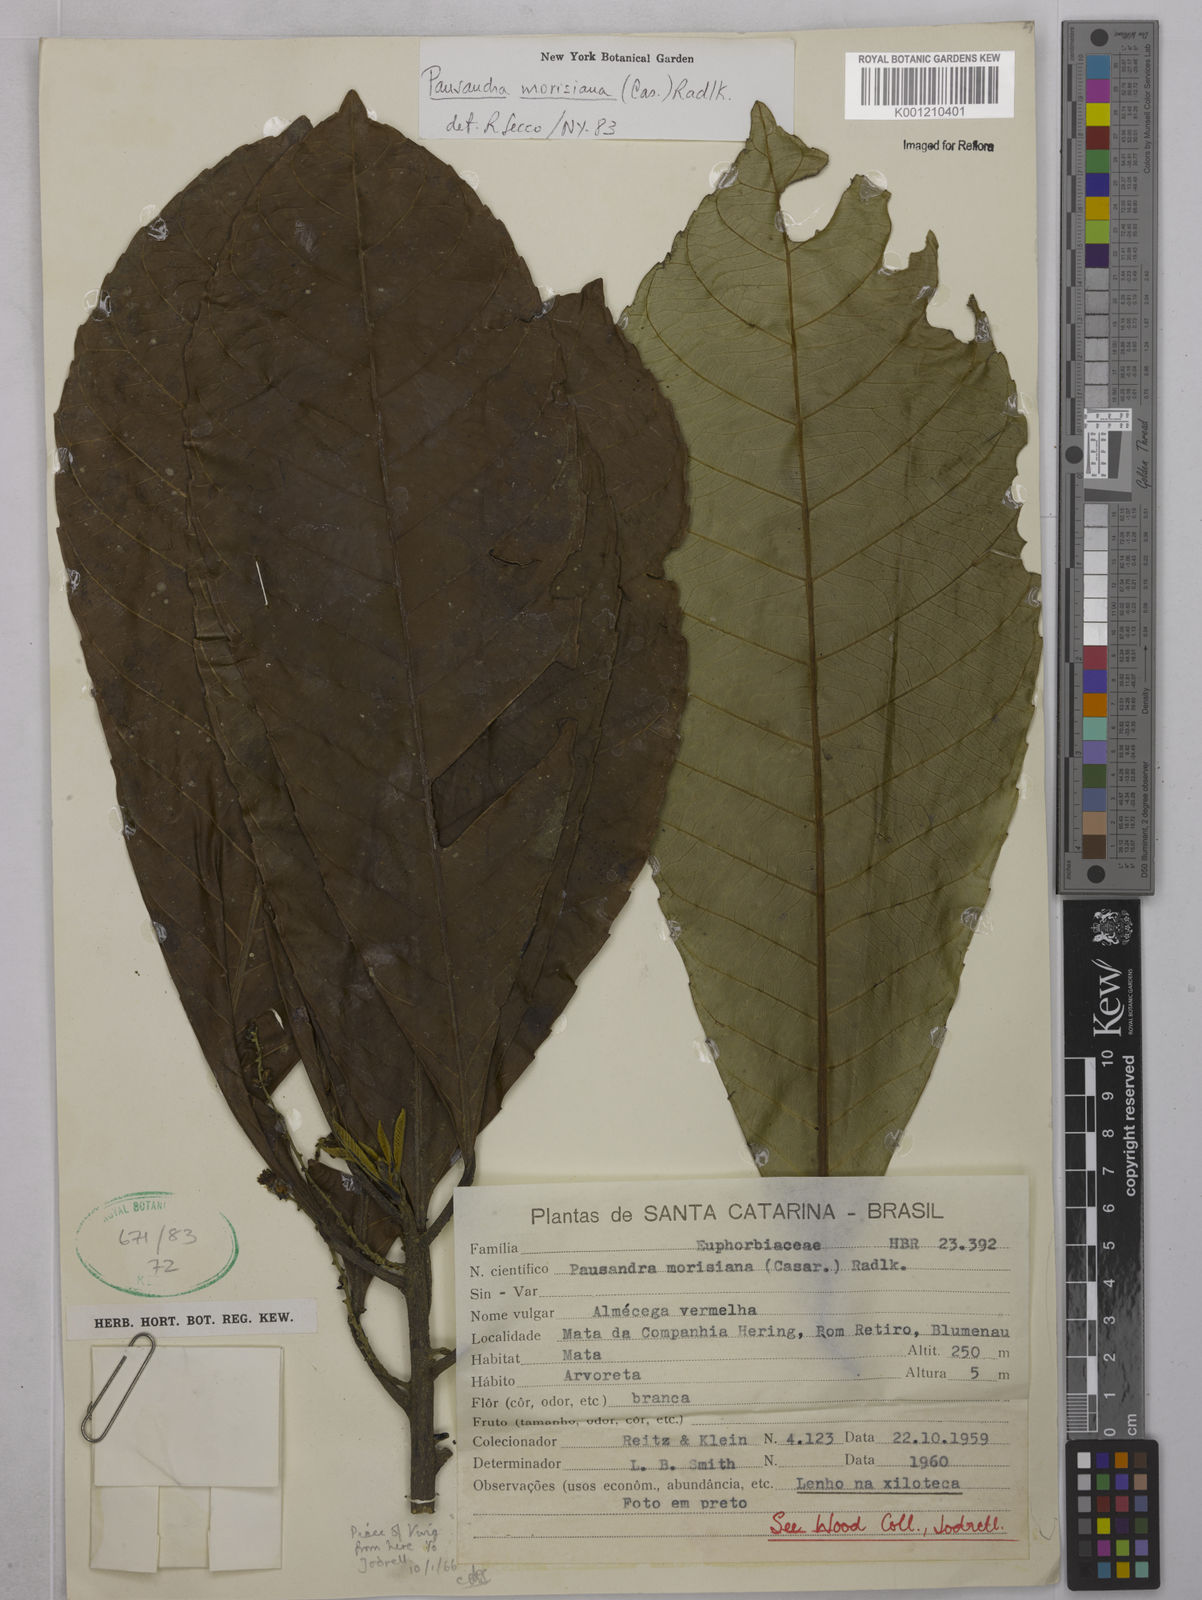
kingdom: Plantae
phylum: Tracheophyta
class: Magnoliopsida
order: Malpighiales
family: Euphorbiaceae
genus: Pausandra
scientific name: Pausandra morisiana
